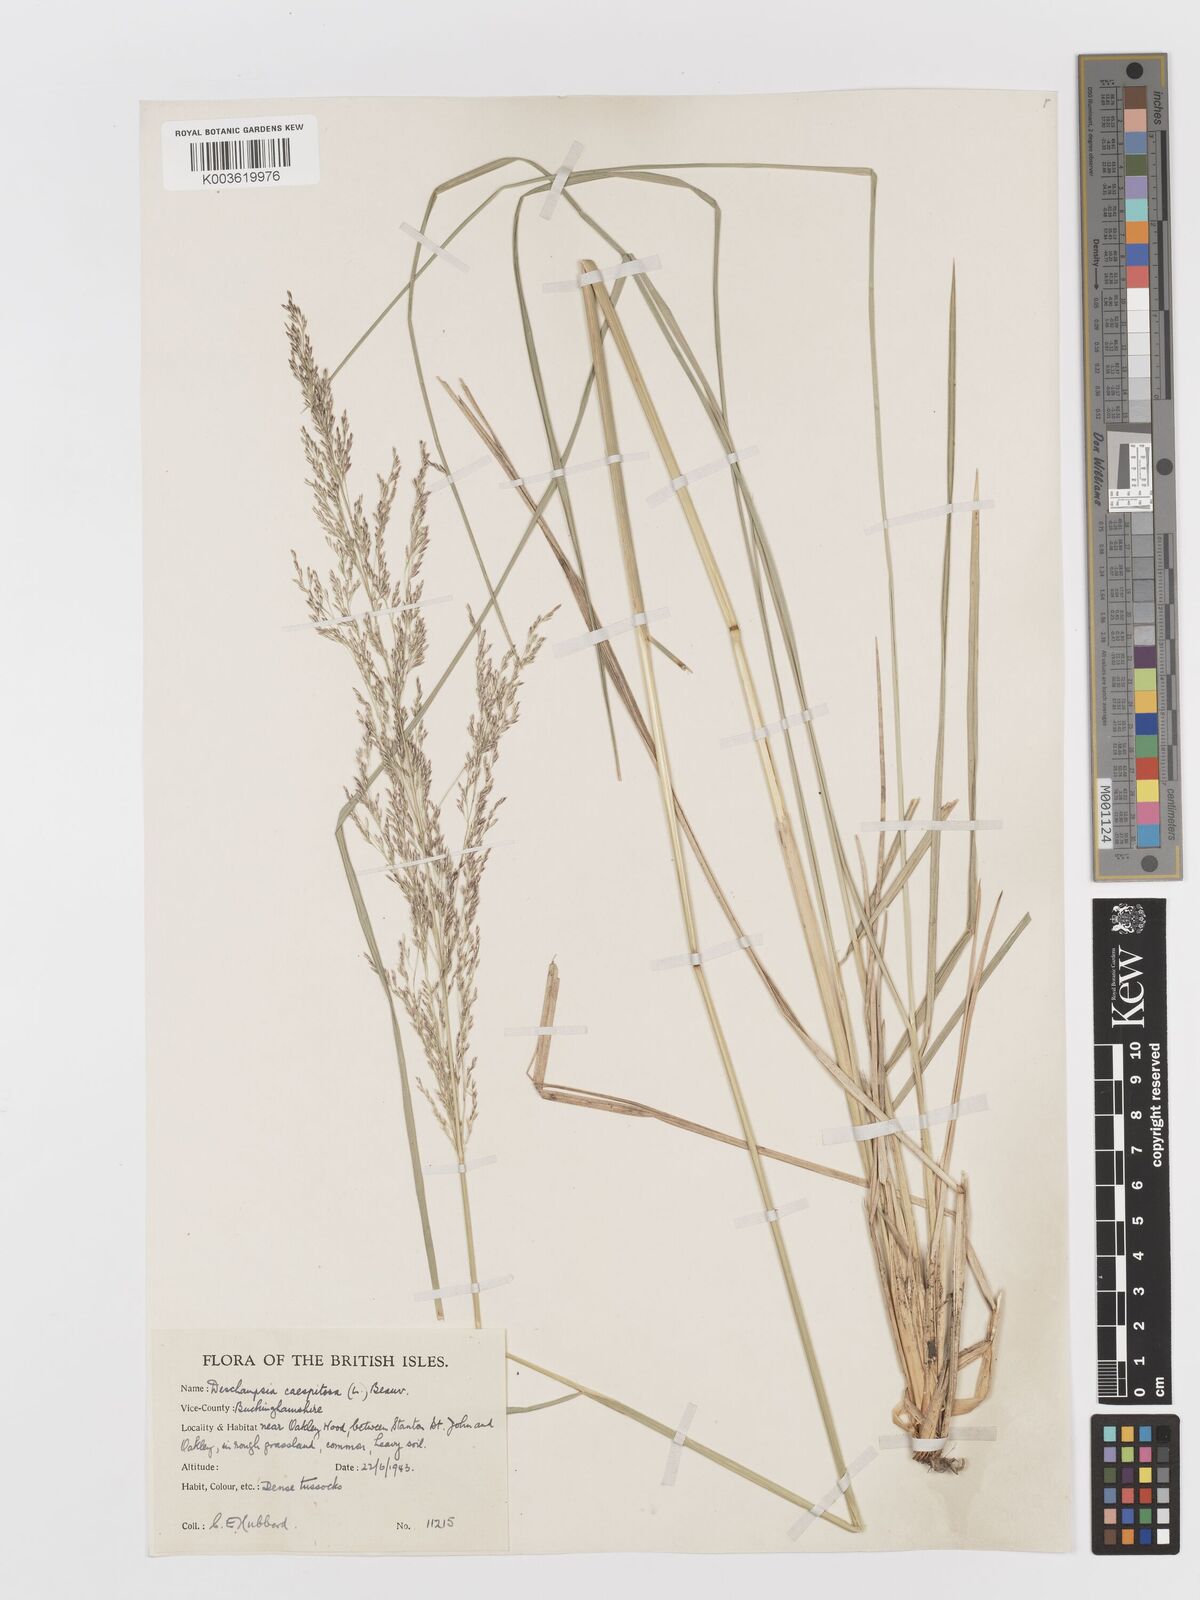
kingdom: Plantae
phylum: Tracheophyta
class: Liliopsida
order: Poales
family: Poaceae
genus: Deschampsia
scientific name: Deschampsia cespitosa
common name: Tufted hair-grass
